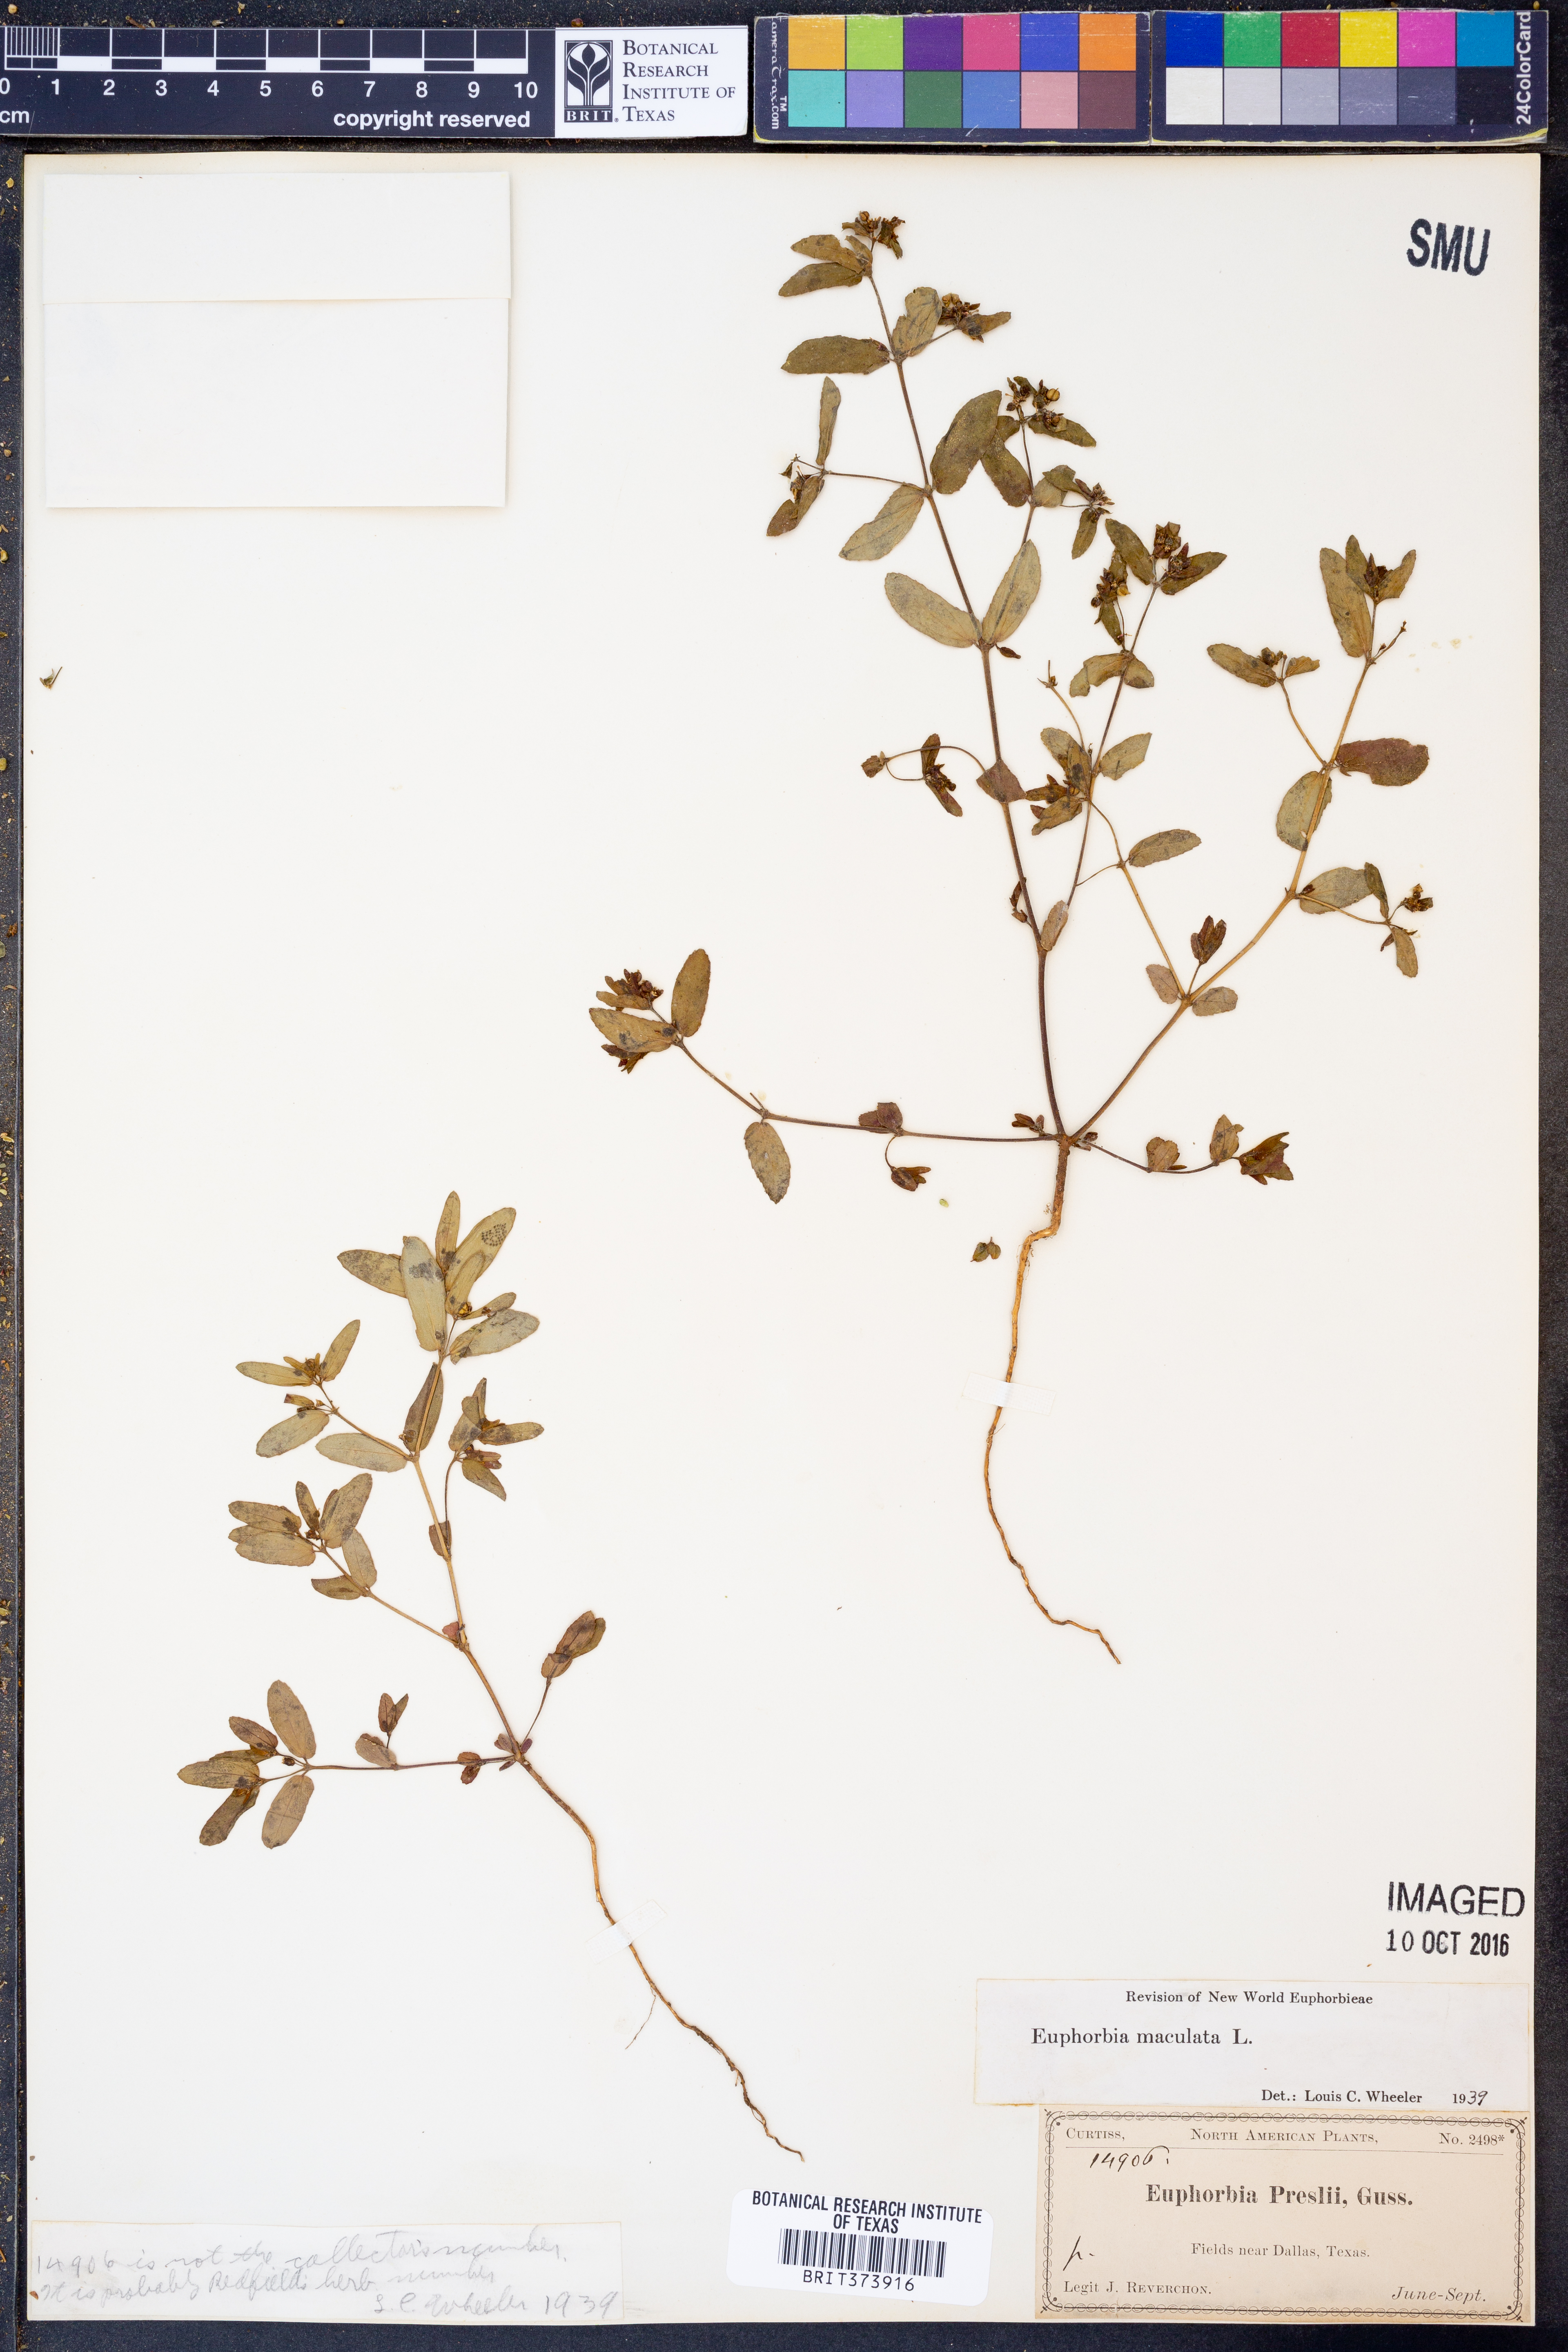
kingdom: Plantae
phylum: Tracheophyta
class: Magnoliopsida
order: Malpighiales
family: Euphorbiaceae
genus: Euphorbia
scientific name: Euphorbia maculata
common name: Spotted spurge
